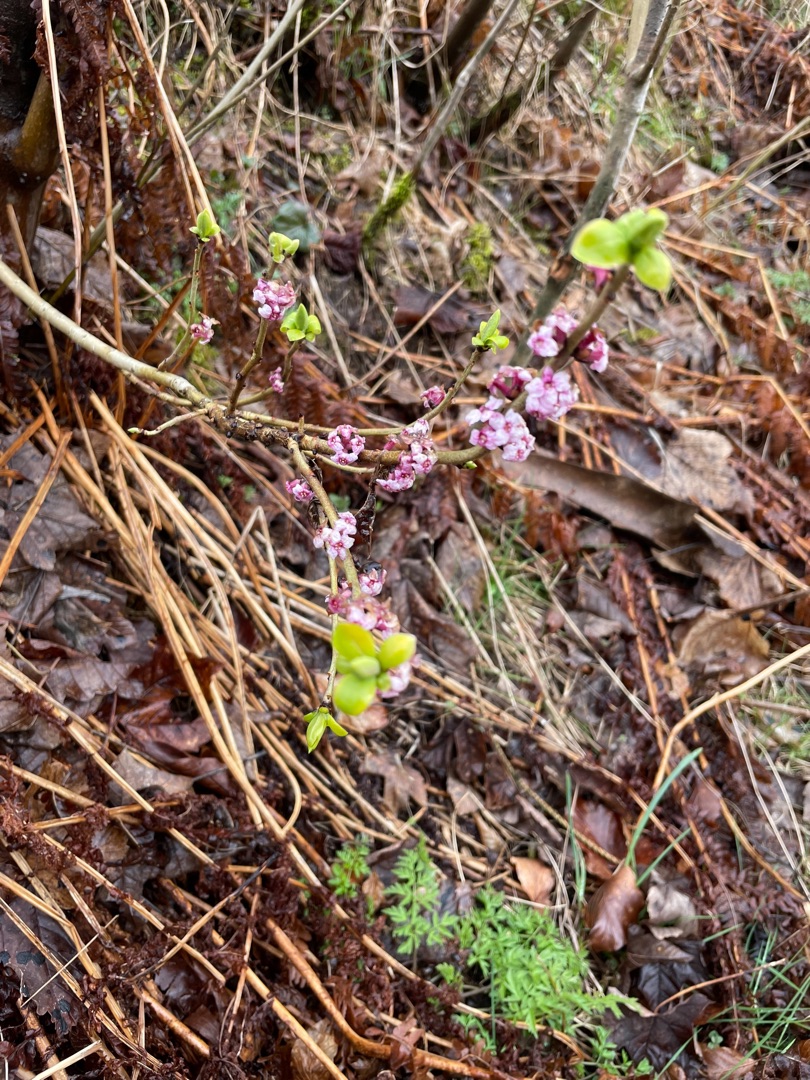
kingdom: Plantae
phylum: Tracheophyta
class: Magnoliopsida
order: Malvales
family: Thymelaeaceae
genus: Daphne
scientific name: Daphne mezereum
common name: Pebertræ
